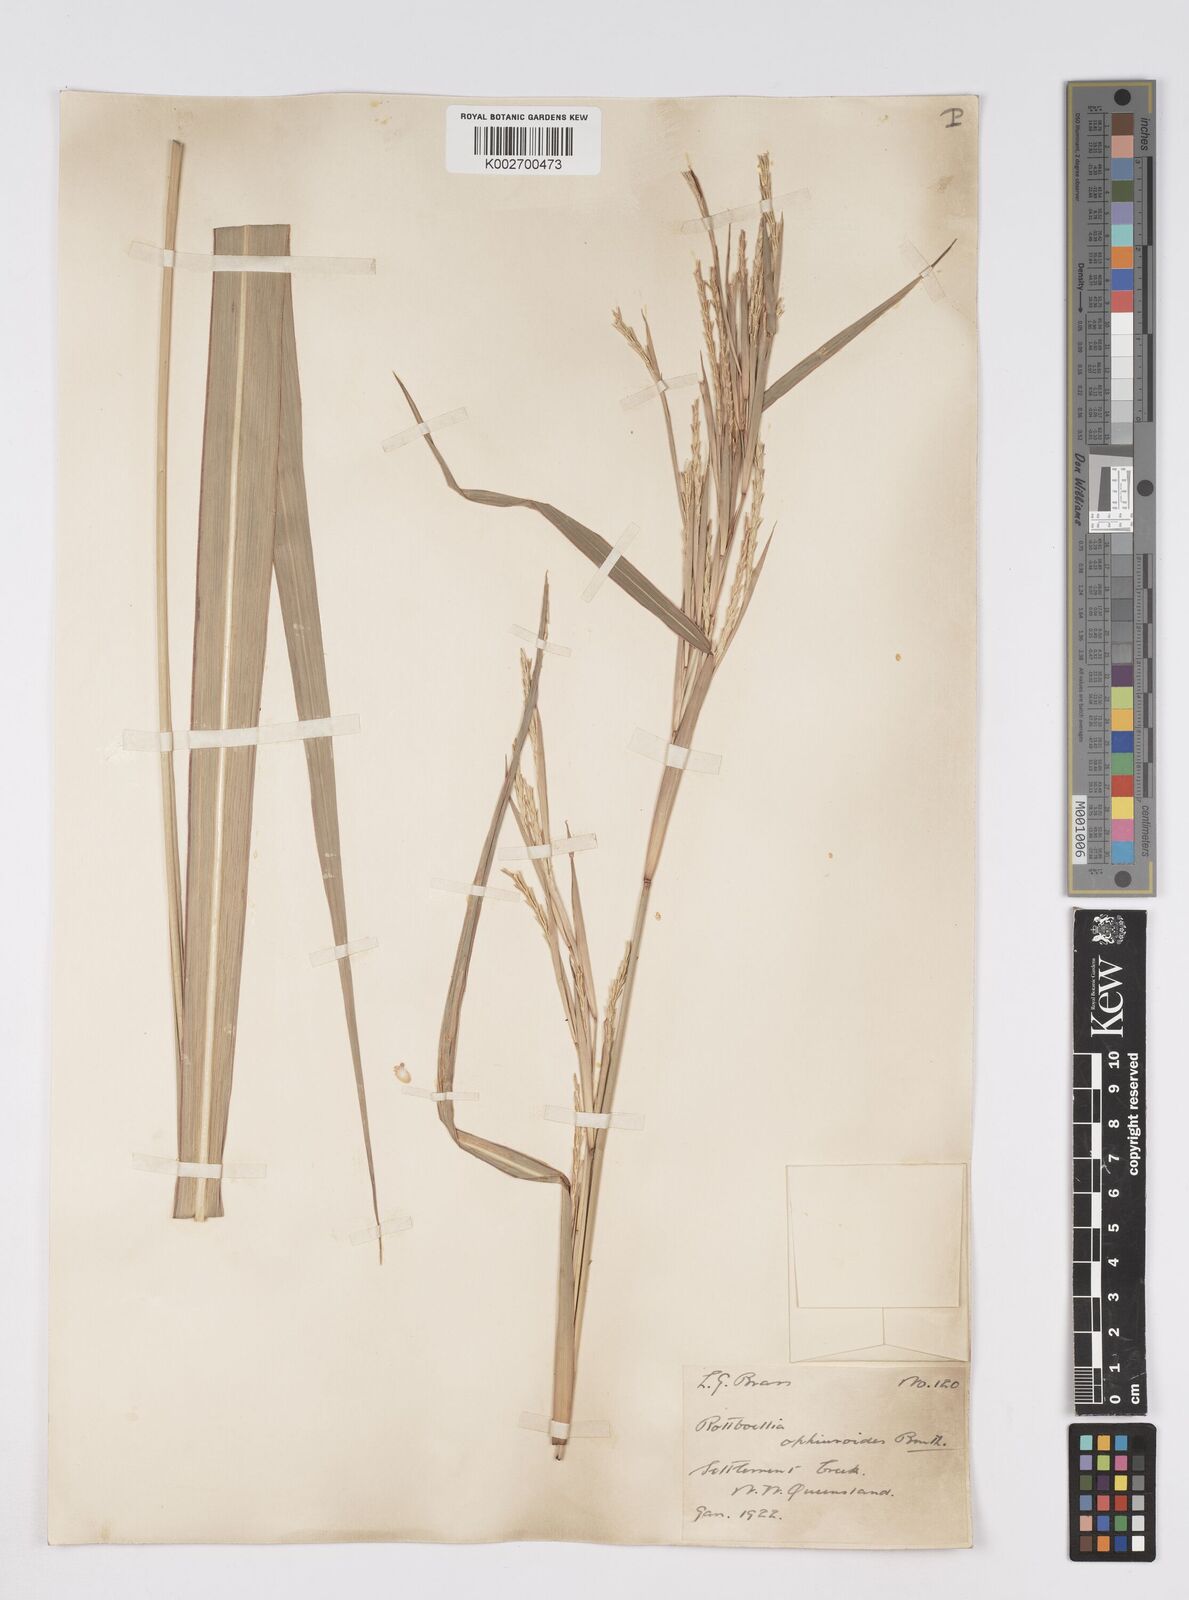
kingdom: Plantae
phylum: Tracheophyta
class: Liliopsida
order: Poales
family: Poaceae
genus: Rottboellia
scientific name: Rottboellia rottboellioides
